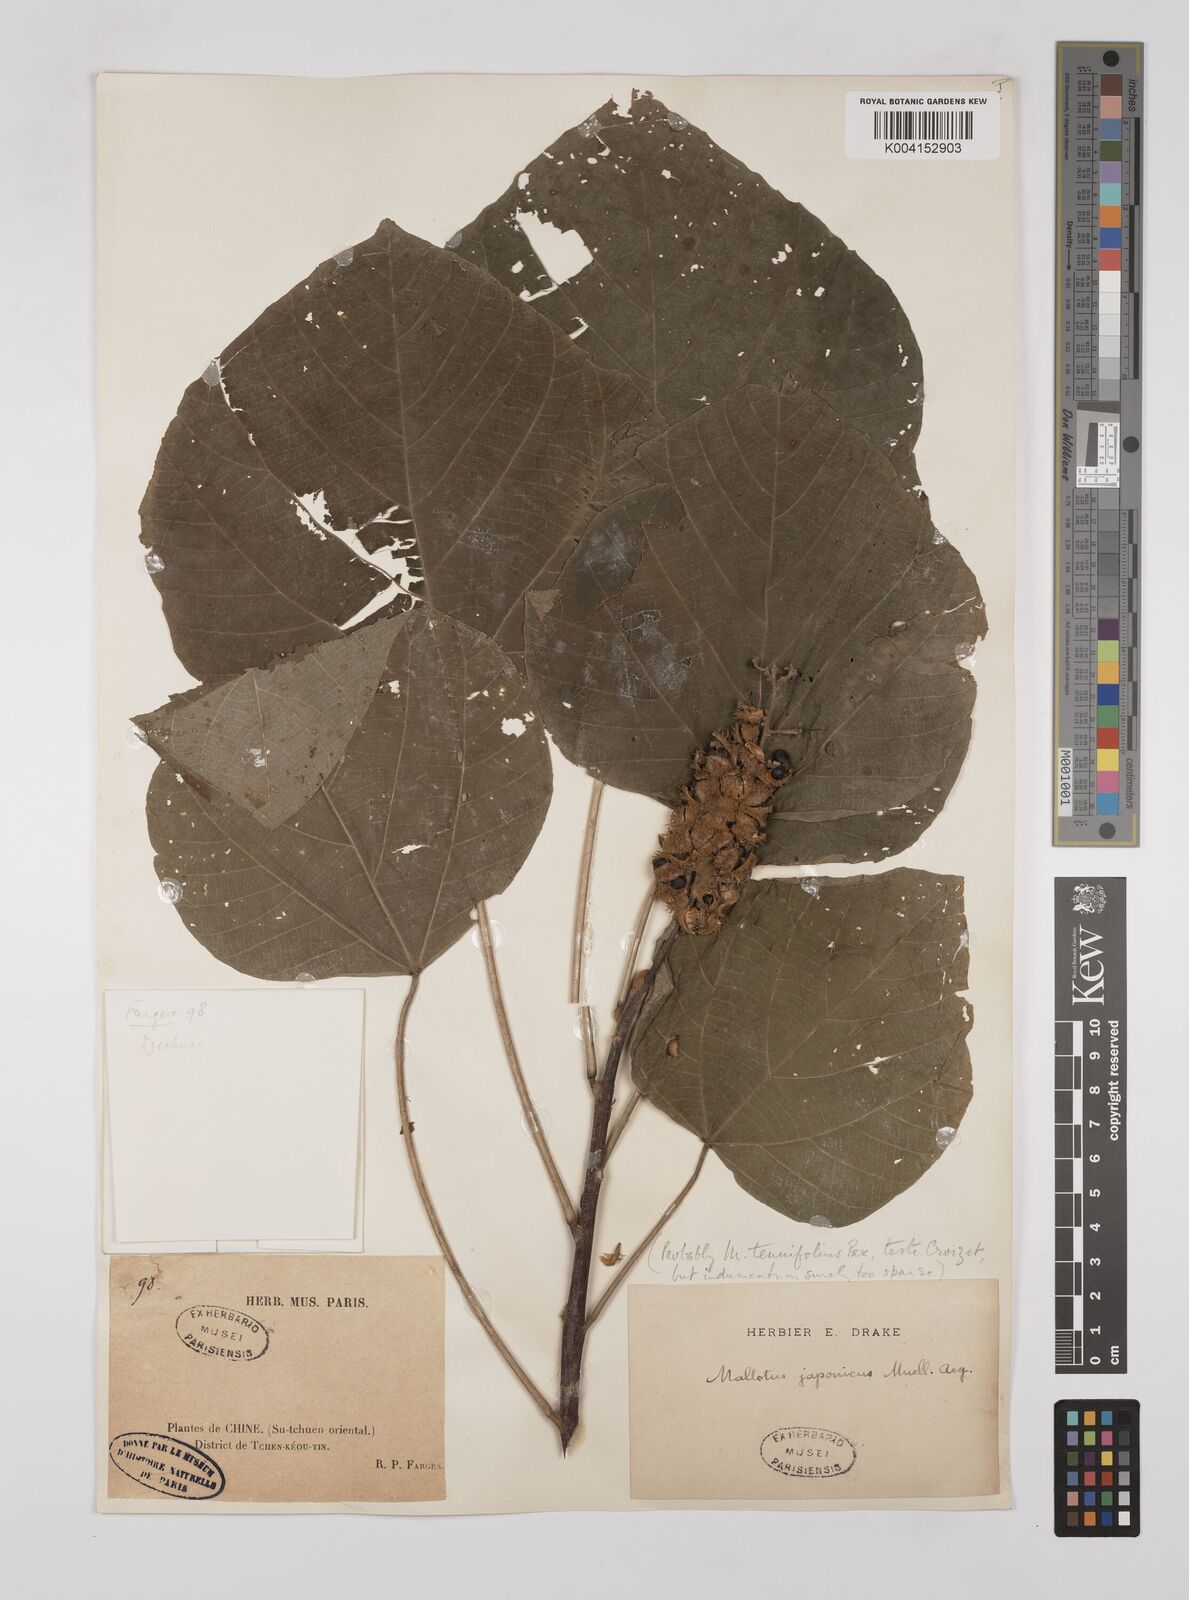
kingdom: Plantae
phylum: Tracheophyta
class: Magnoliopsida
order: Malpighiales
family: Euphorbiaceae
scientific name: Euphorbiaceae
